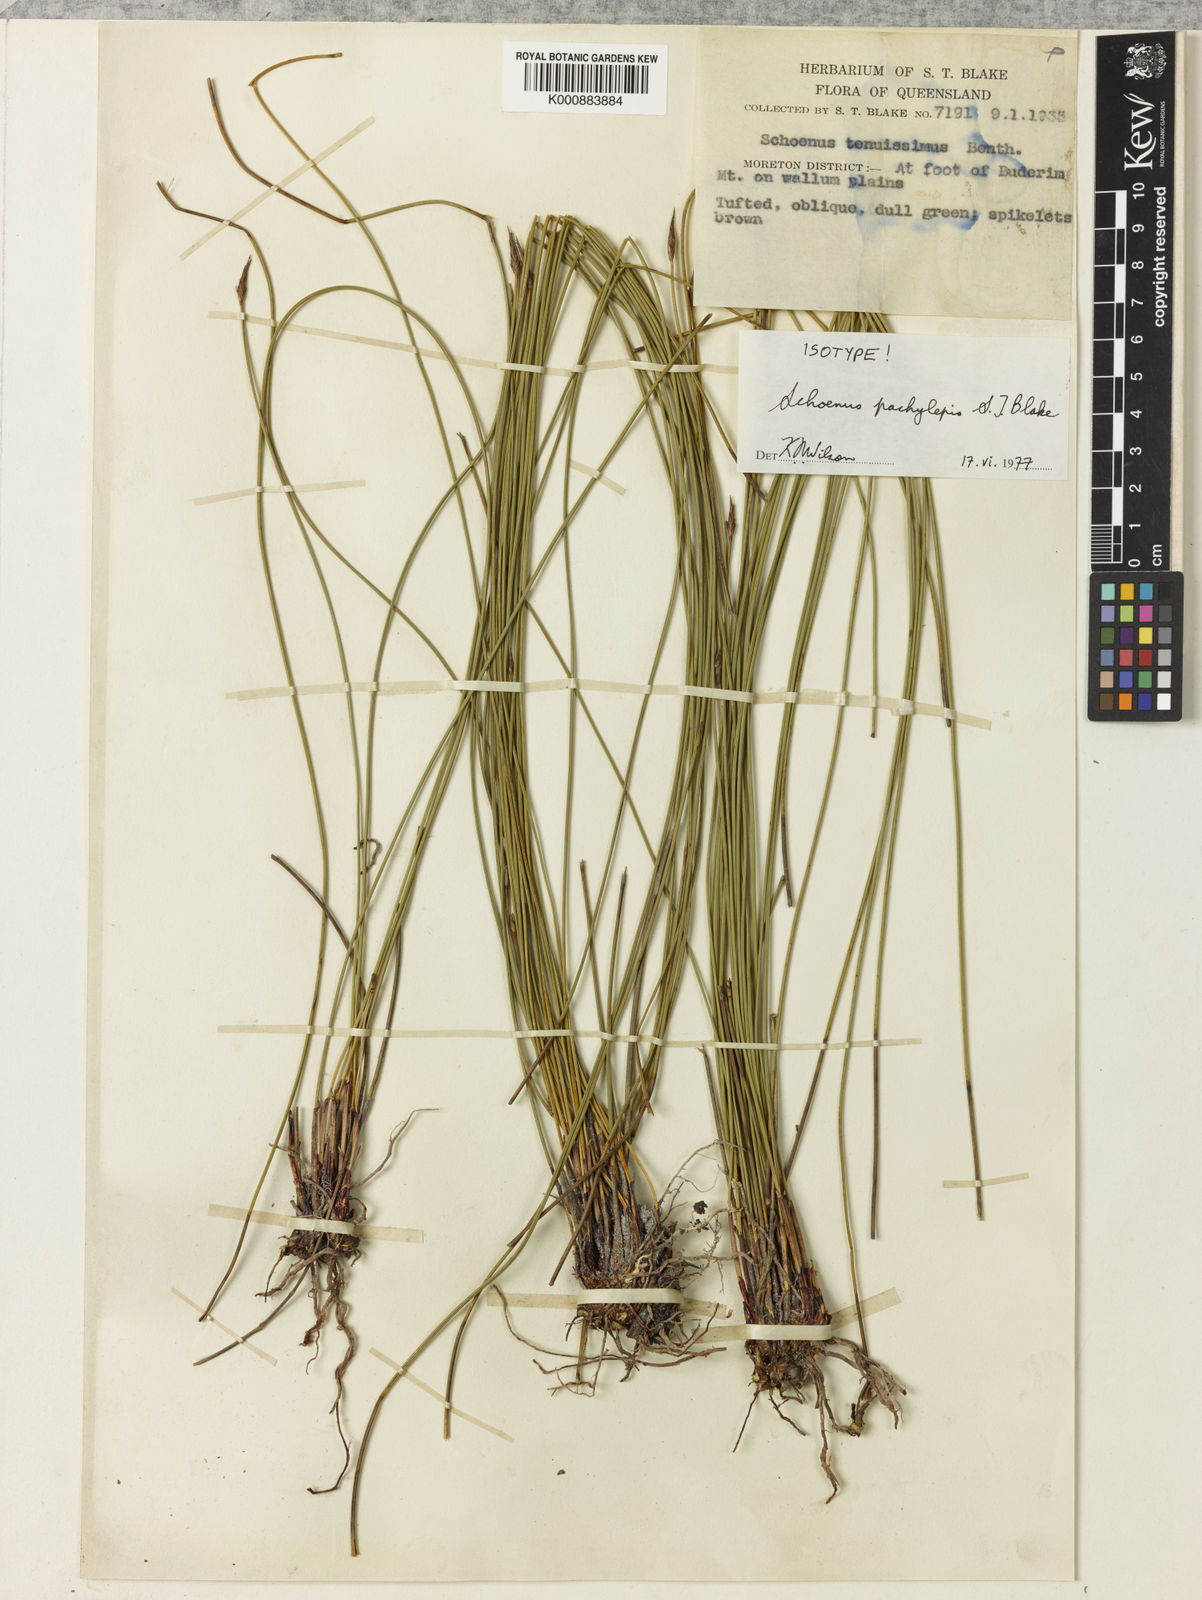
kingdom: Plantae
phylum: Tracheophyta
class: Liliopsida
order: Poales
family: Cyperaceae
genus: Schoenus
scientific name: Schoenus lepidosperma
